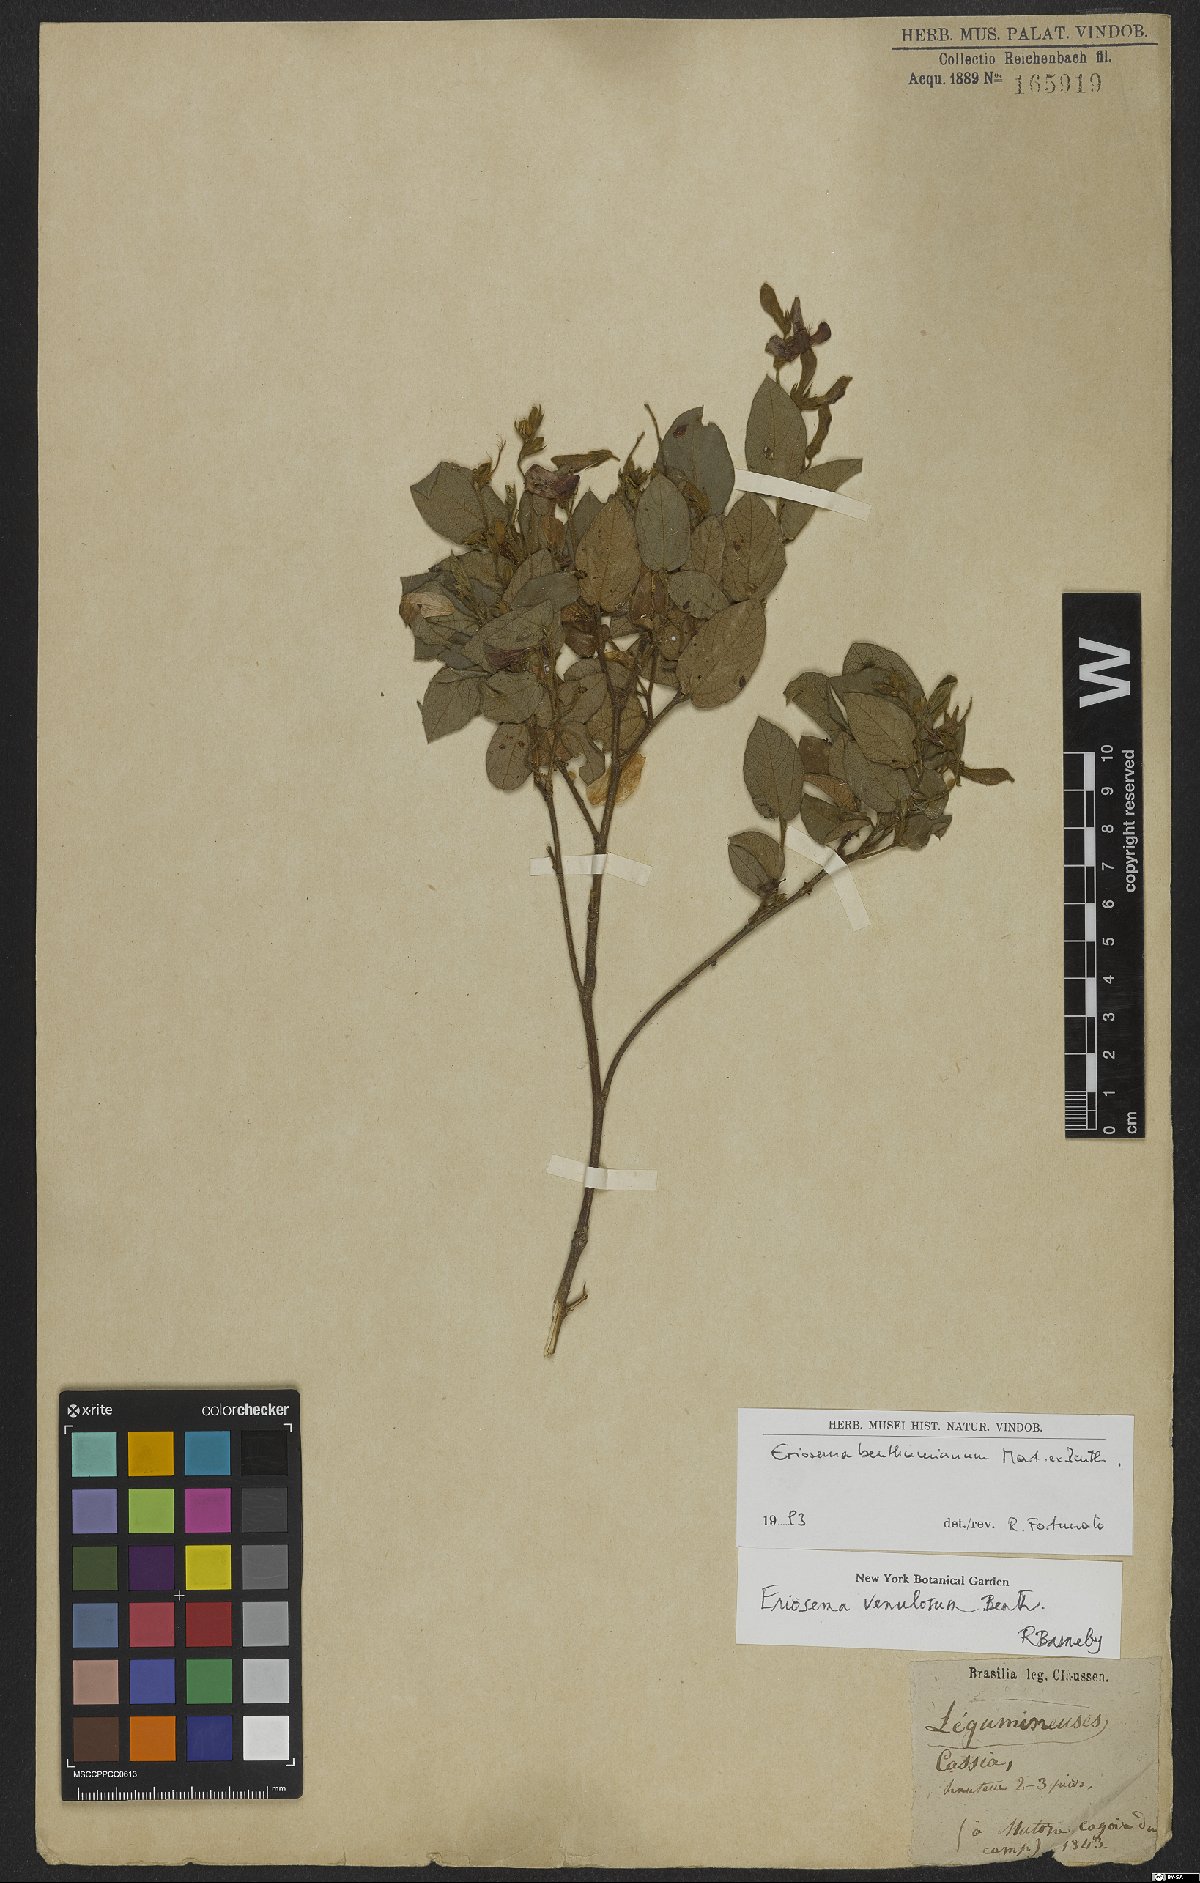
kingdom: Plantae
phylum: Tracheophyta
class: Magnoliopsida
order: Fabales
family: Fabaceae
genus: Eriosema
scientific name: Eriosema benthamianum
